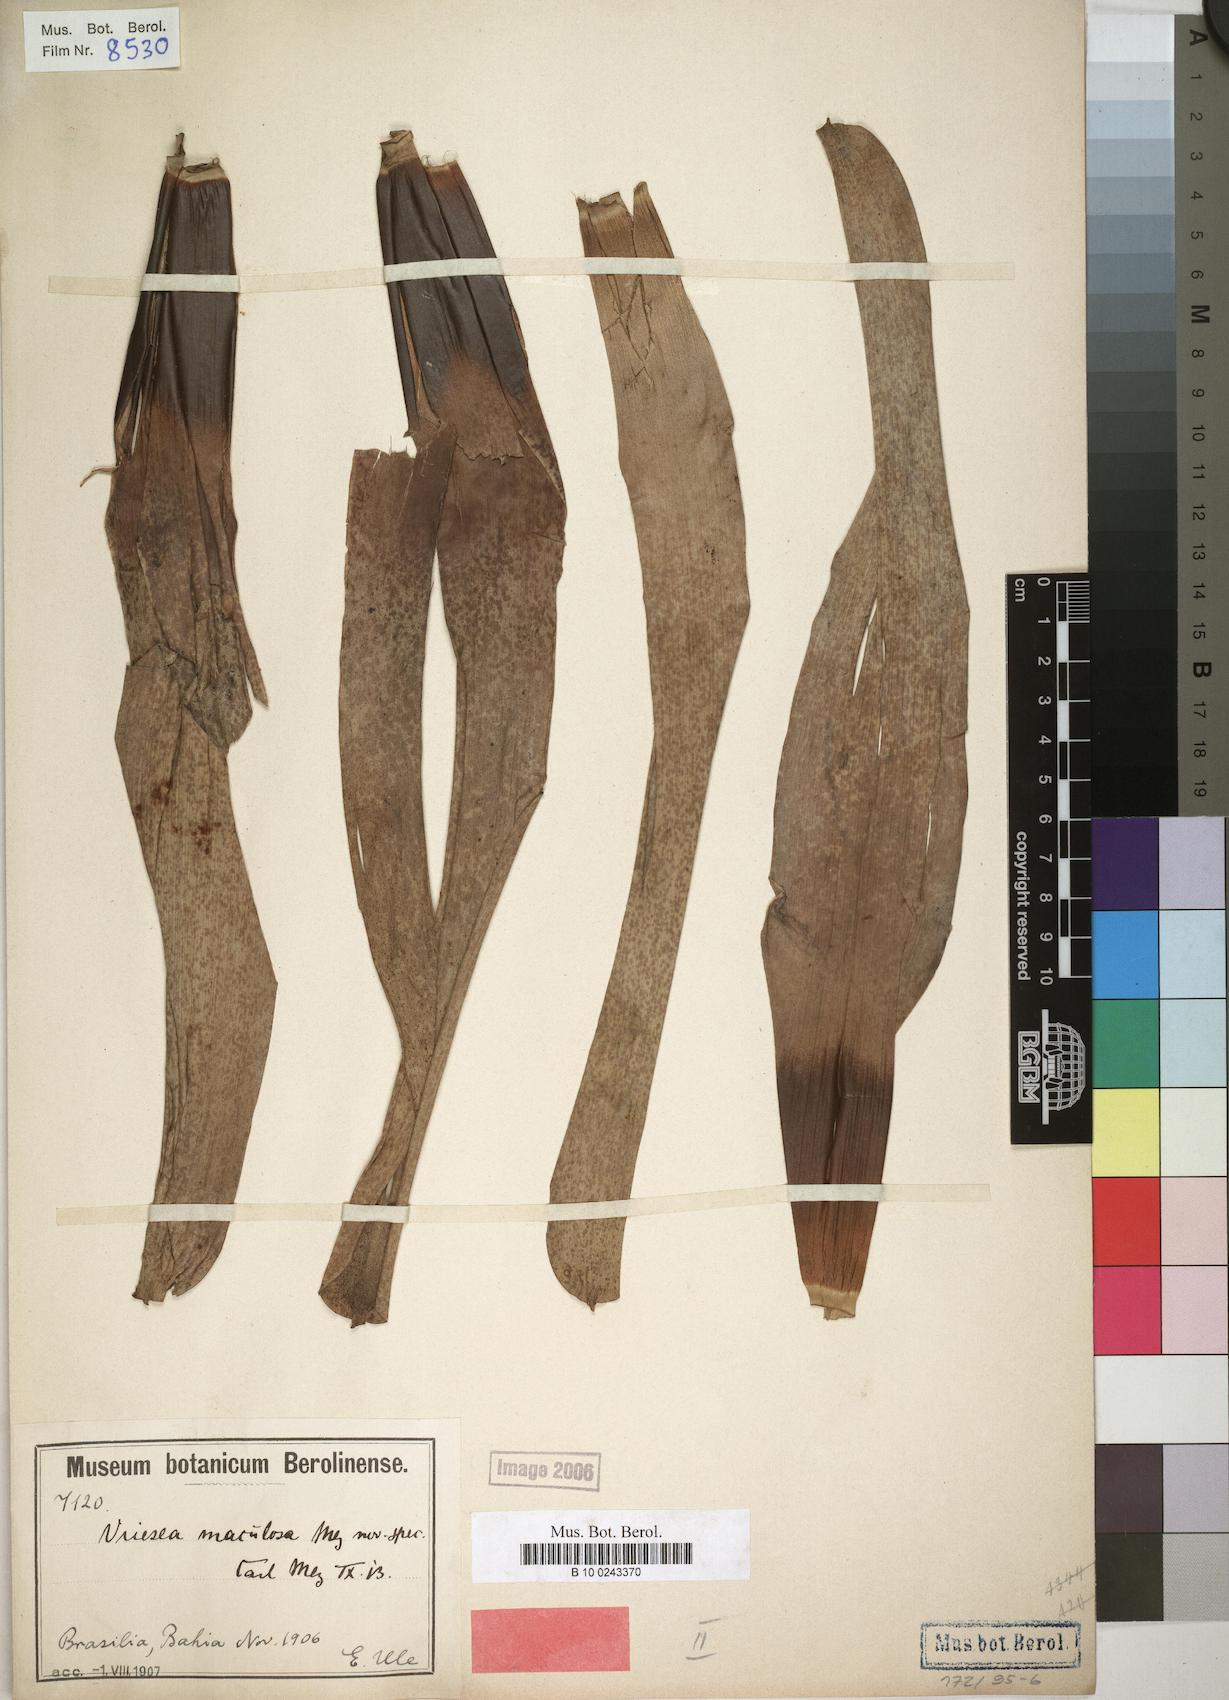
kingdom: Plantae
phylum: Tracheophyta
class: Liliopsida
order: Poales
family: Bromeliaceae
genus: Vriesea
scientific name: Vriesea maculosa
